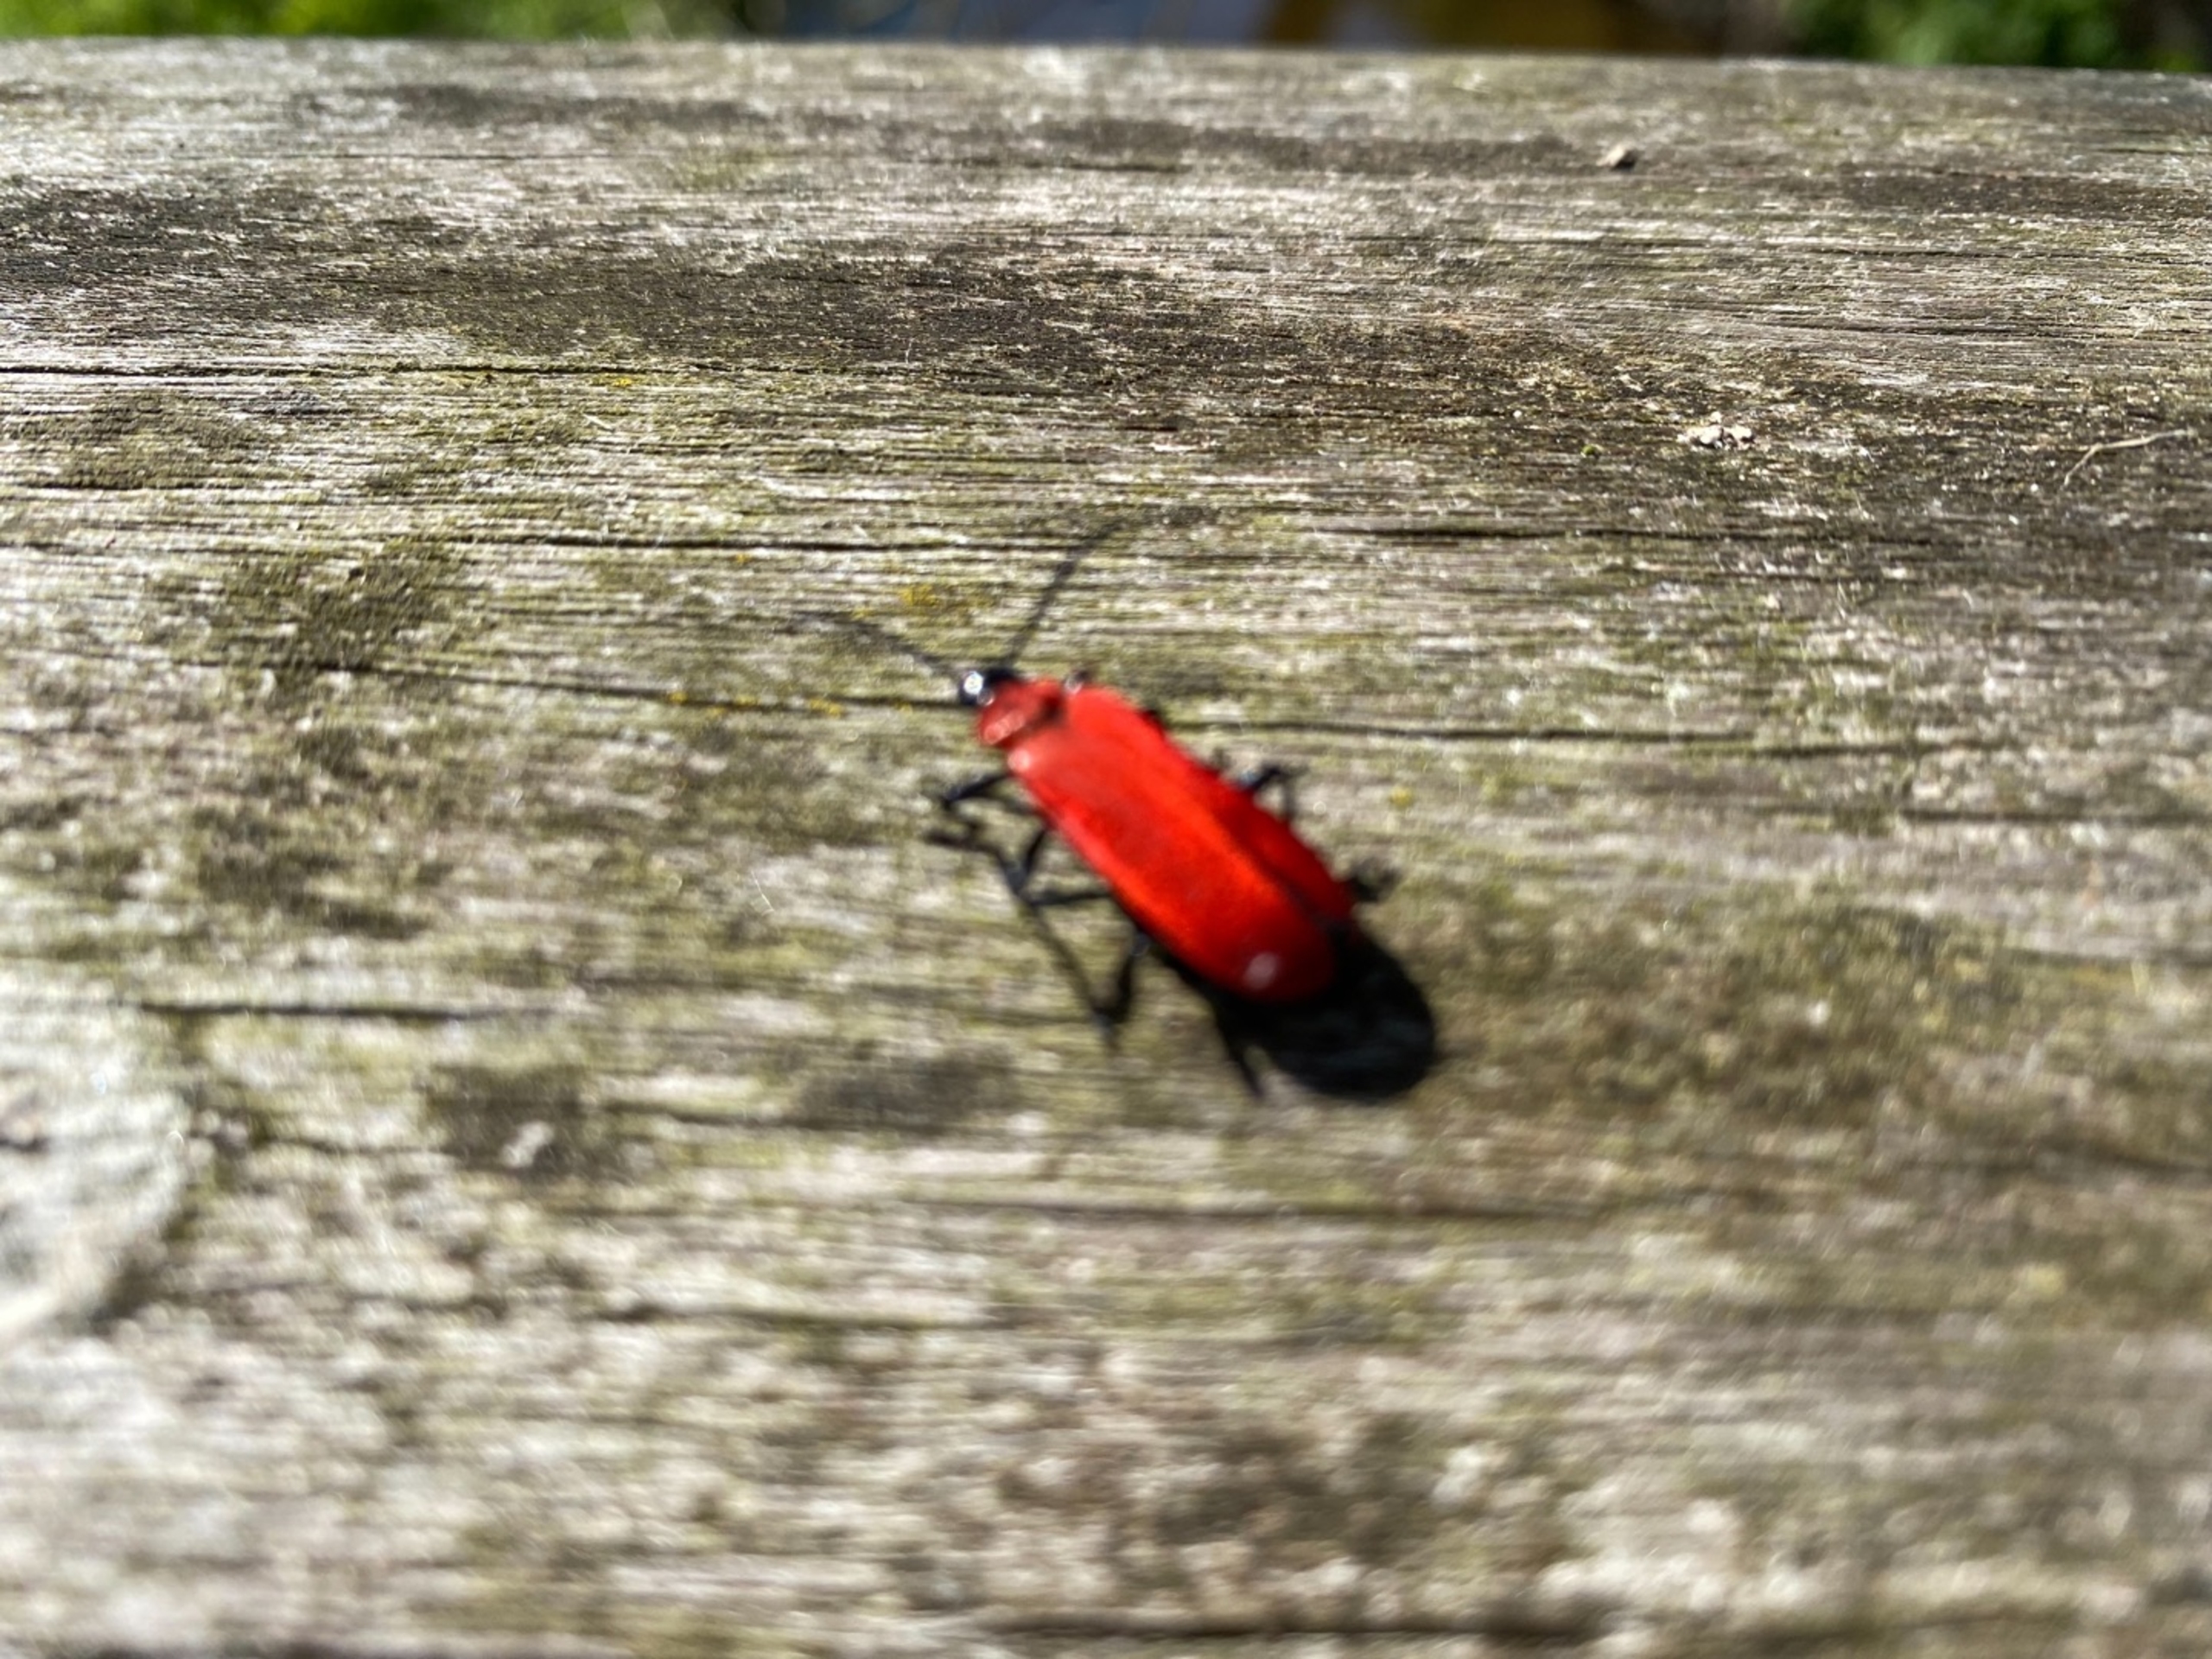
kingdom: Animalia
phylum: Arthropoda
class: Insecta
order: Coleoptera
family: Pyrochroidae
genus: Pyrochroa
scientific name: Pyrochroa coccinea
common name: Sorthovedet kardinalbille
